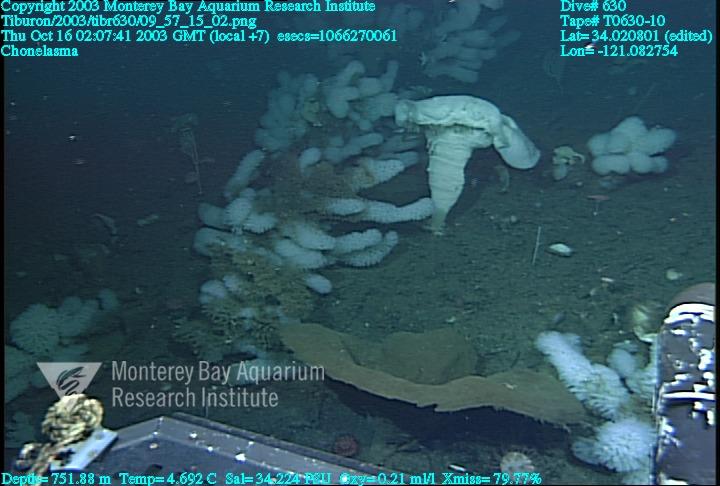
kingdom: Animalia
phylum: Porifera
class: Hexactinellida
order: Sceptrulophora
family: Euretidae
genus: Chonelasma
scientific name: Chonelasma
